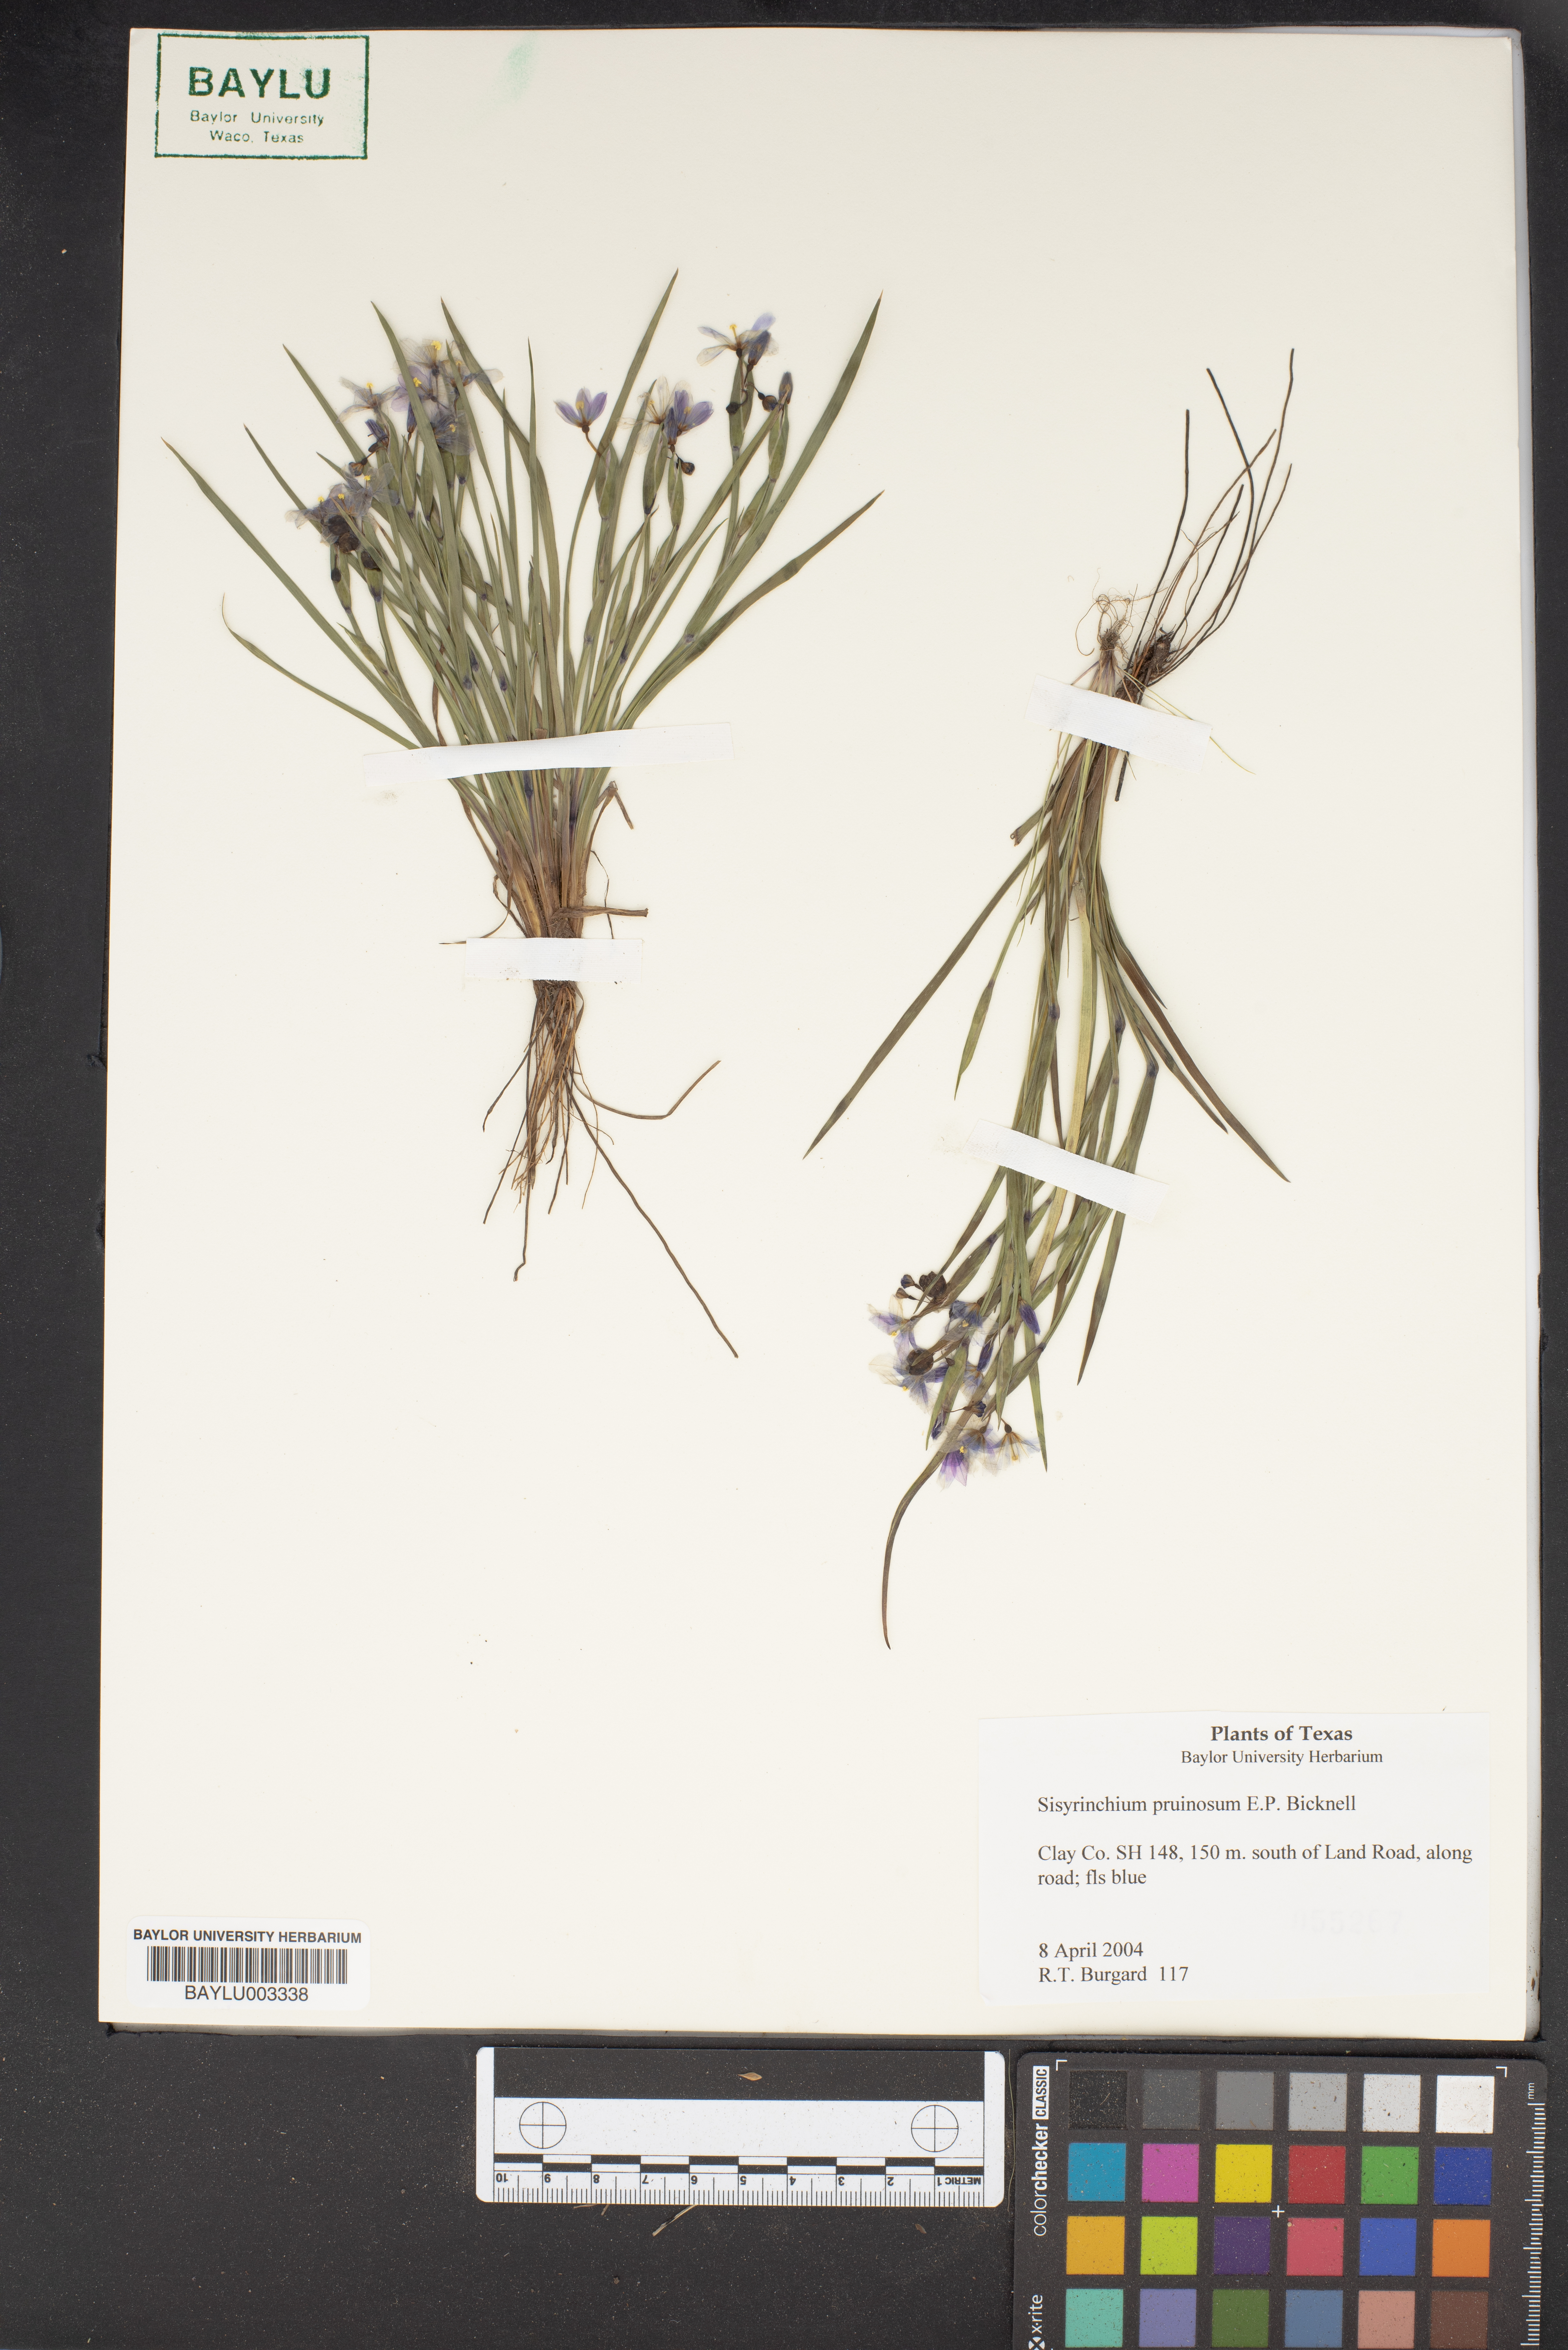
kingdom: Plantae
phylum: Tracheophyta
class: Liliopsida
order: Asparagales
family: Iridaceae
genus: Sisyrinchium
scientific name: Sisyrinchium pruinosum
